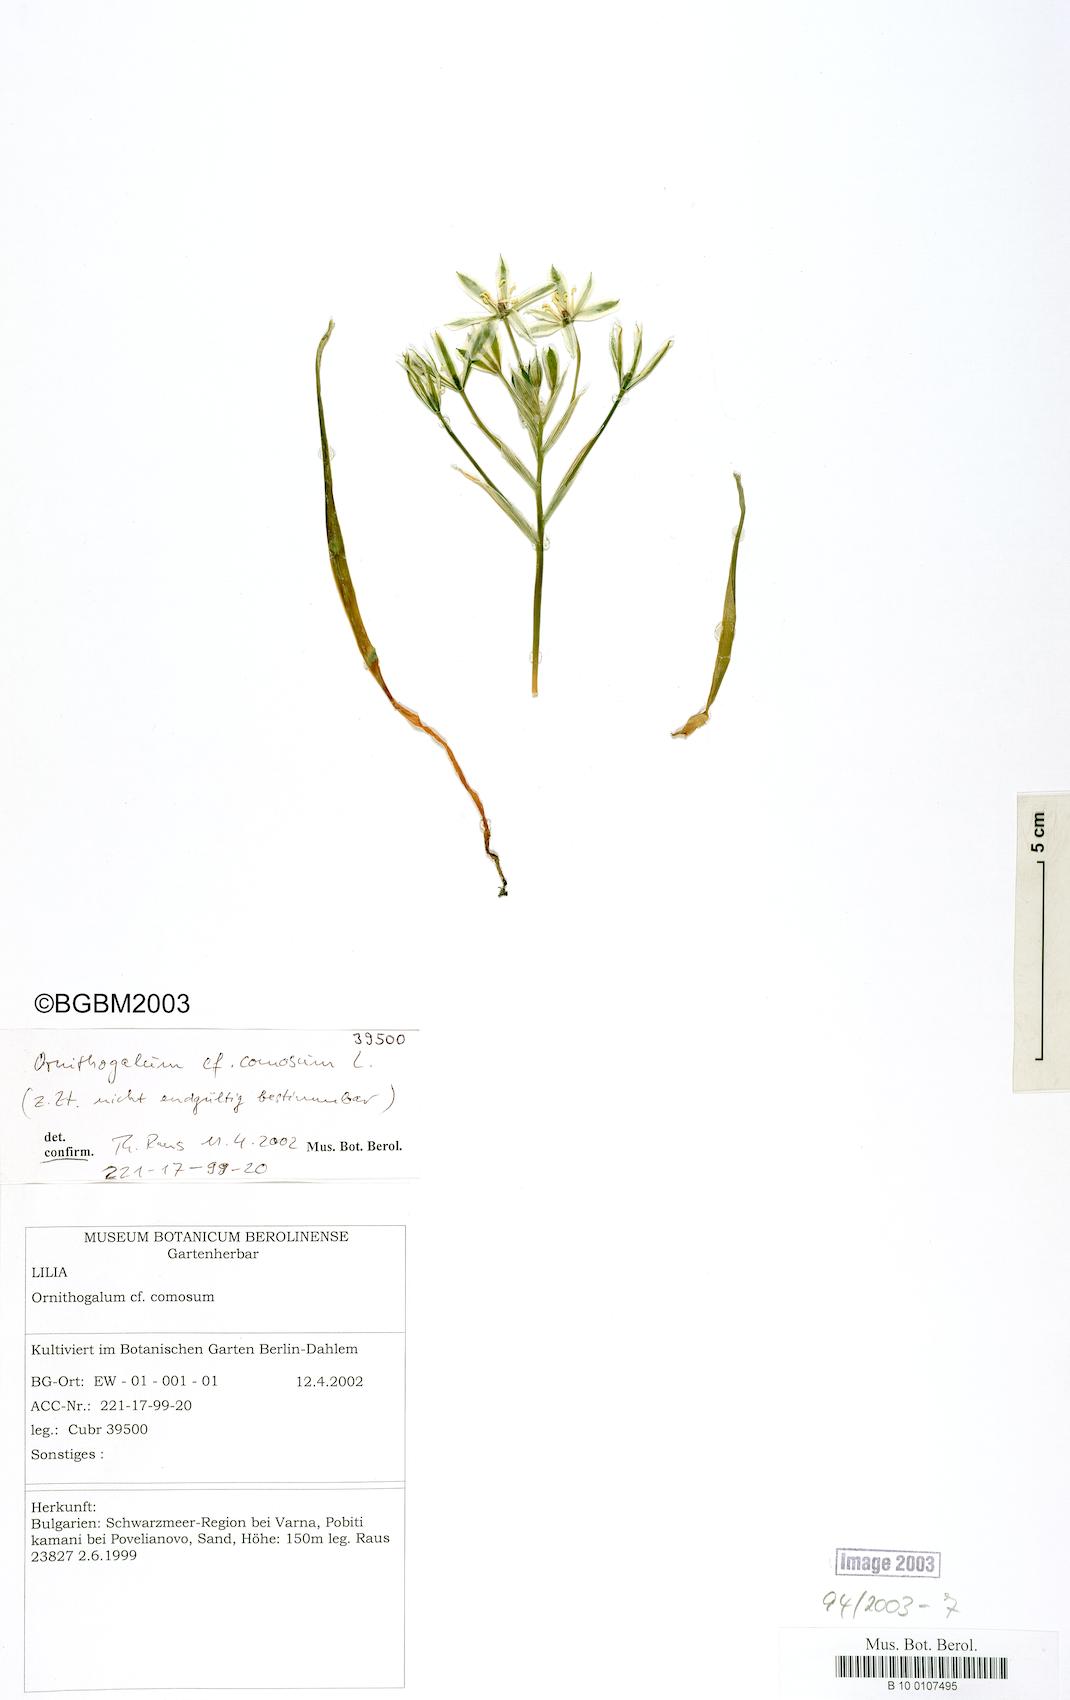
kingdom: Plantae
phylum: Tracheophyta
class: Liliopsida
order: Asparagales
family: Asparagaceae
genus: Ornithogalum
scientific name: Ornithogalum comosum
